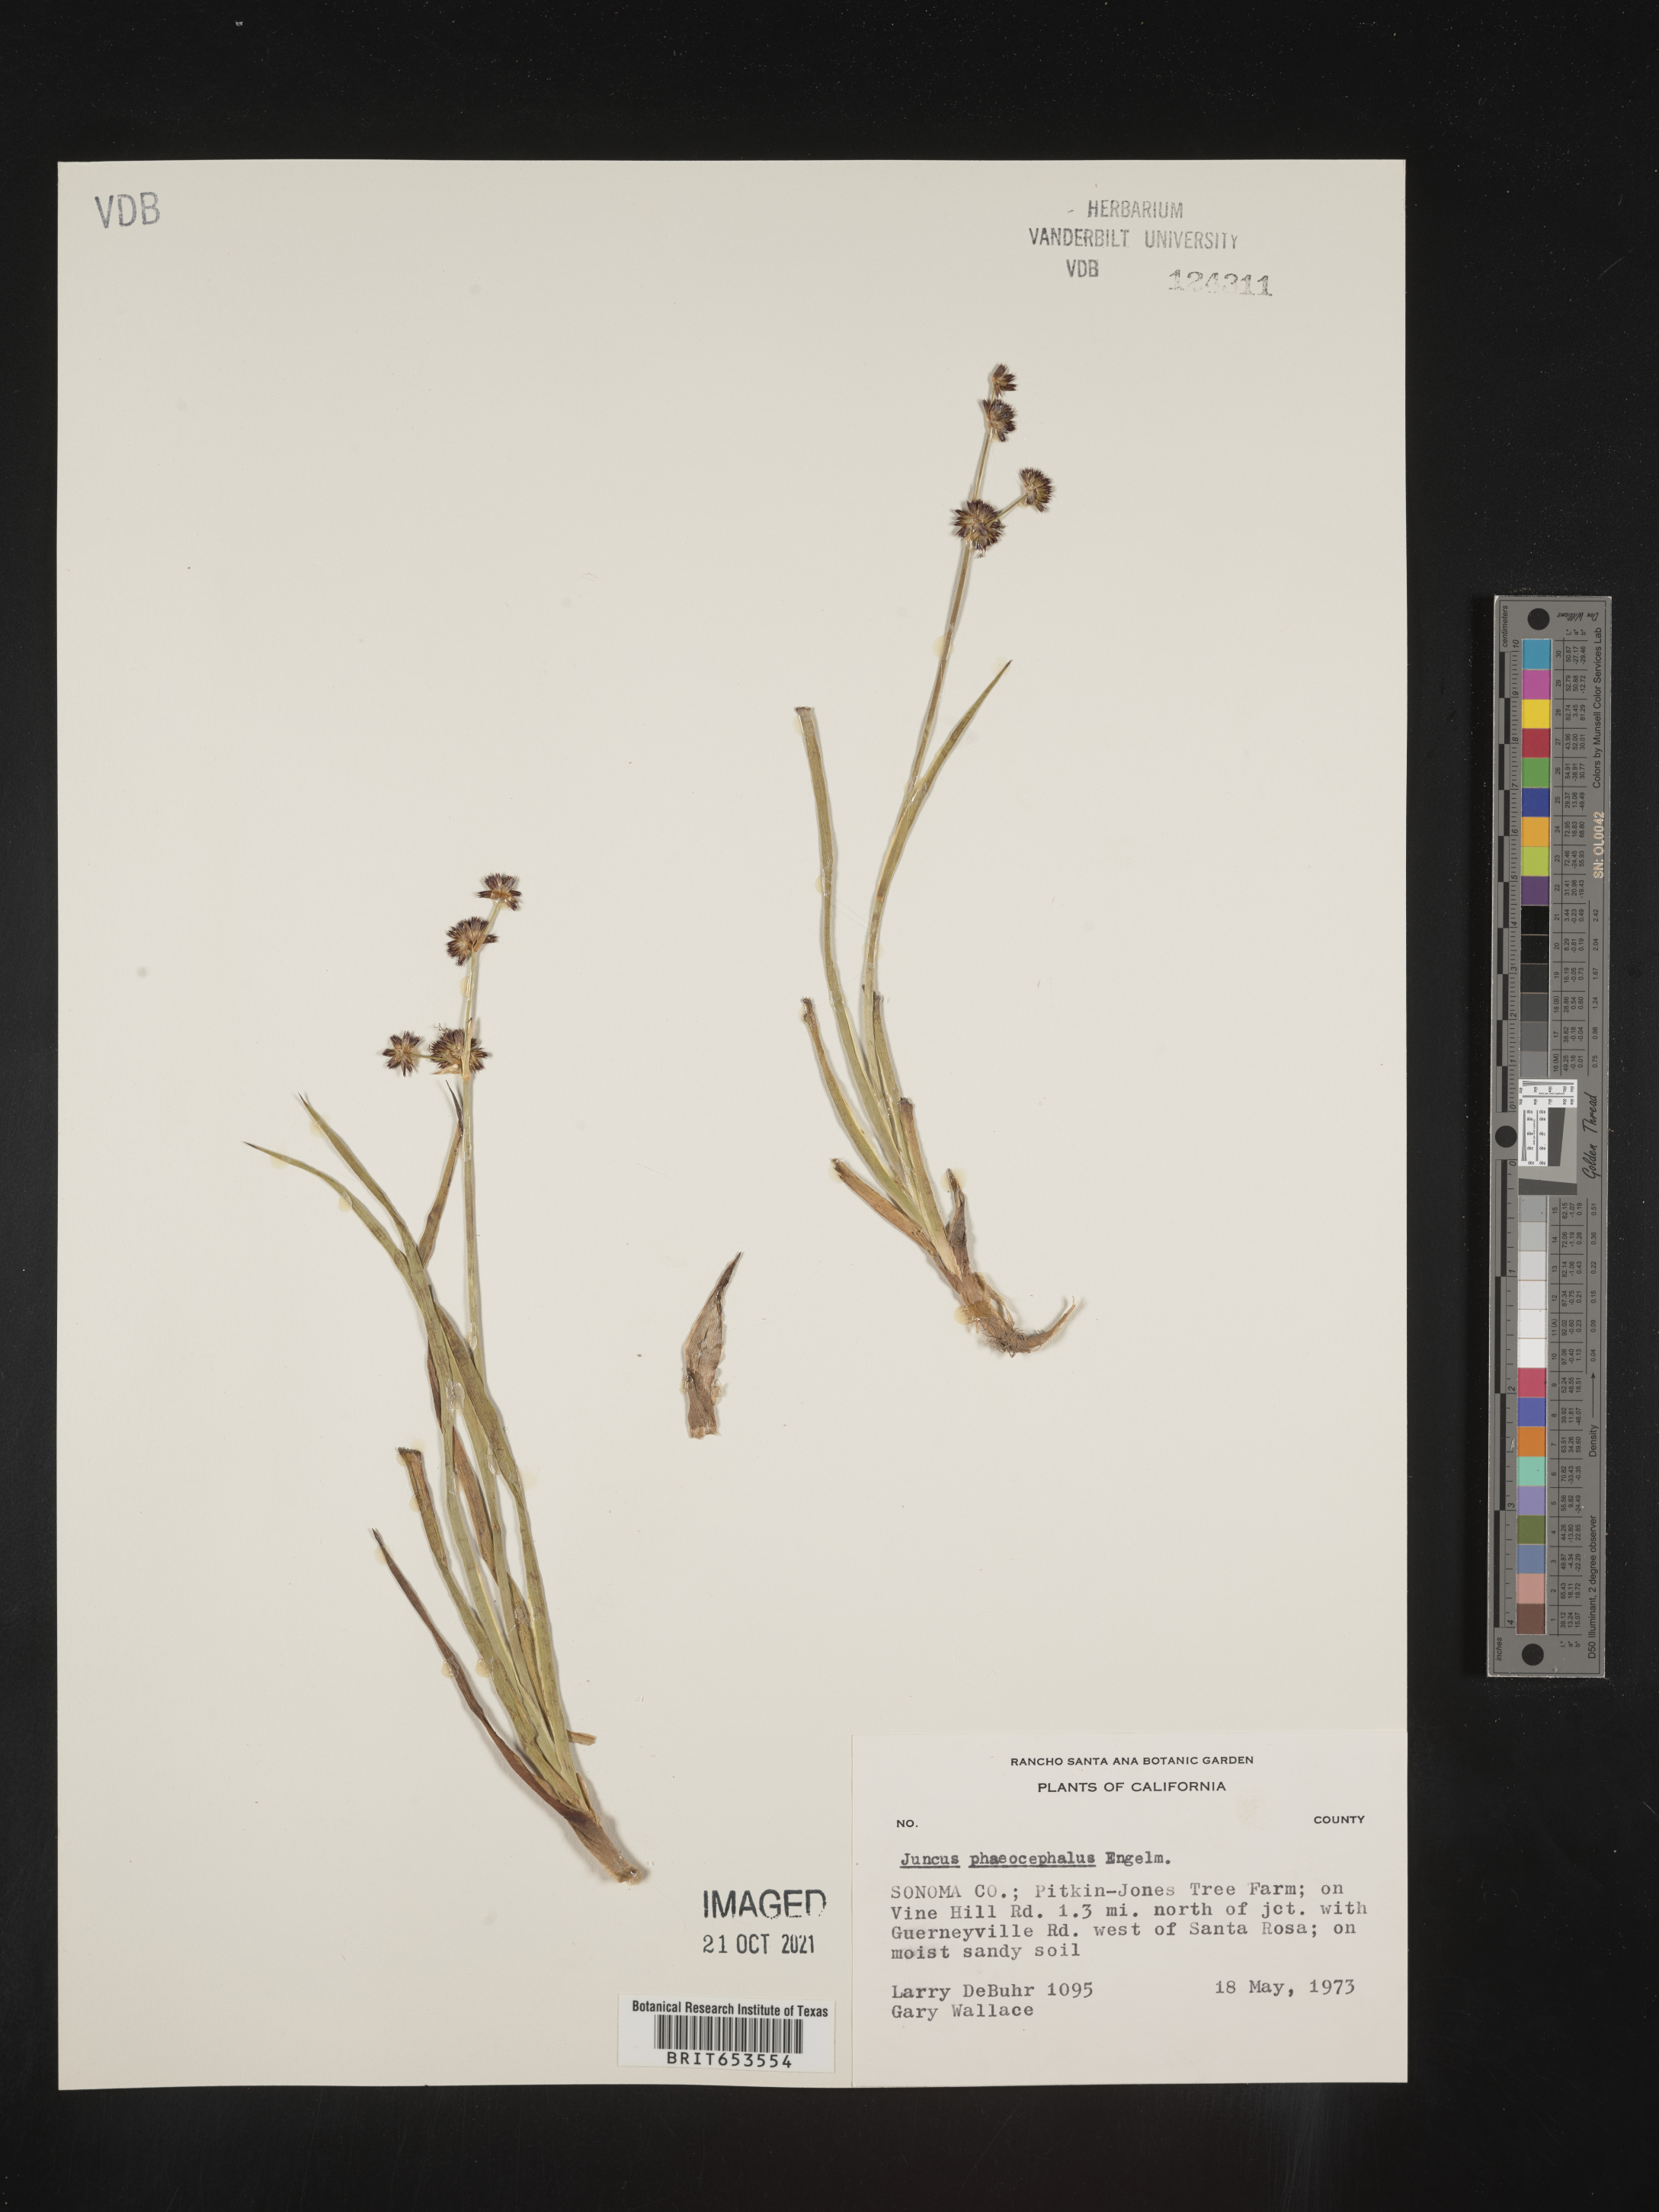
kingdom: Plantae
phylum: Tracheophyta
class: Liliopsida
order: Poales
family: Juncaceae
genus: Juncus
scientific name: Juncus phaeocephalus
